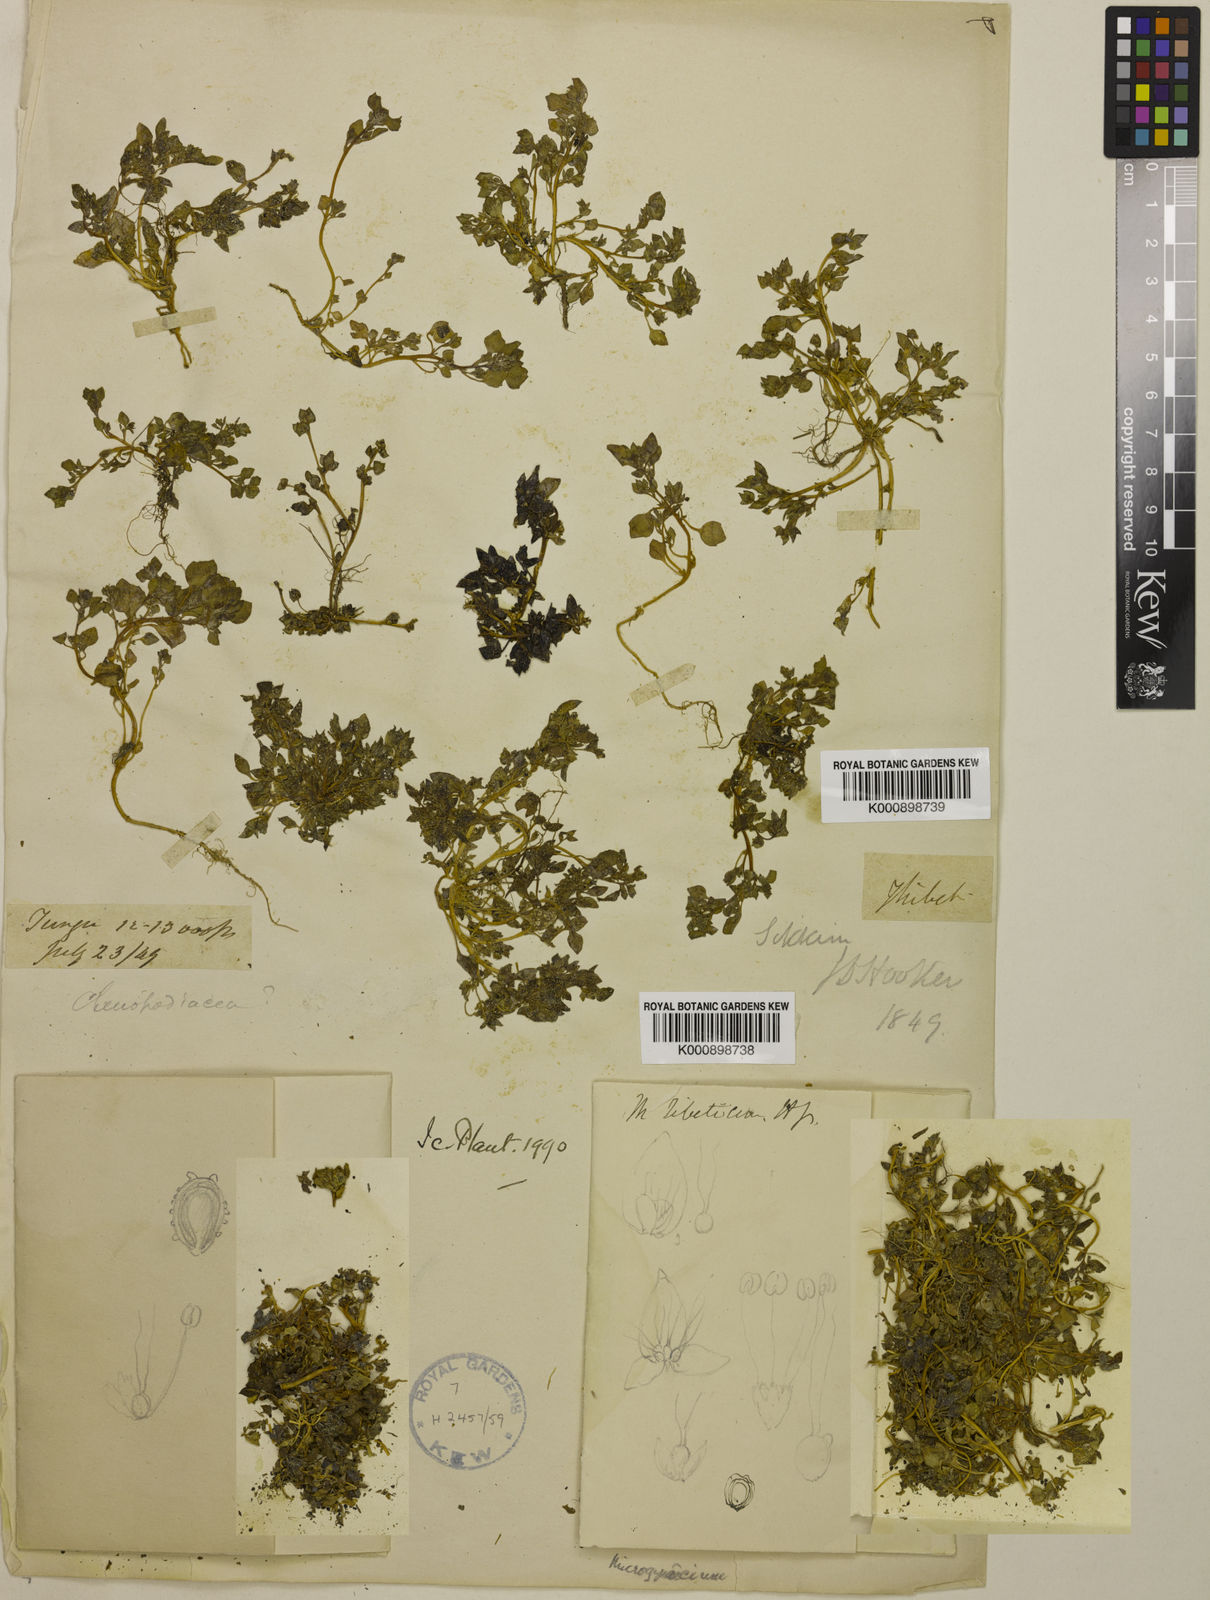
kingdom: Plantae
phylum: Tracheophyta
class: Magnoliopsida
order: Caryophyllales
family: Amaranthaceae
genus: Microgynoecium
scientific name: Microgynoecium tibeticum
